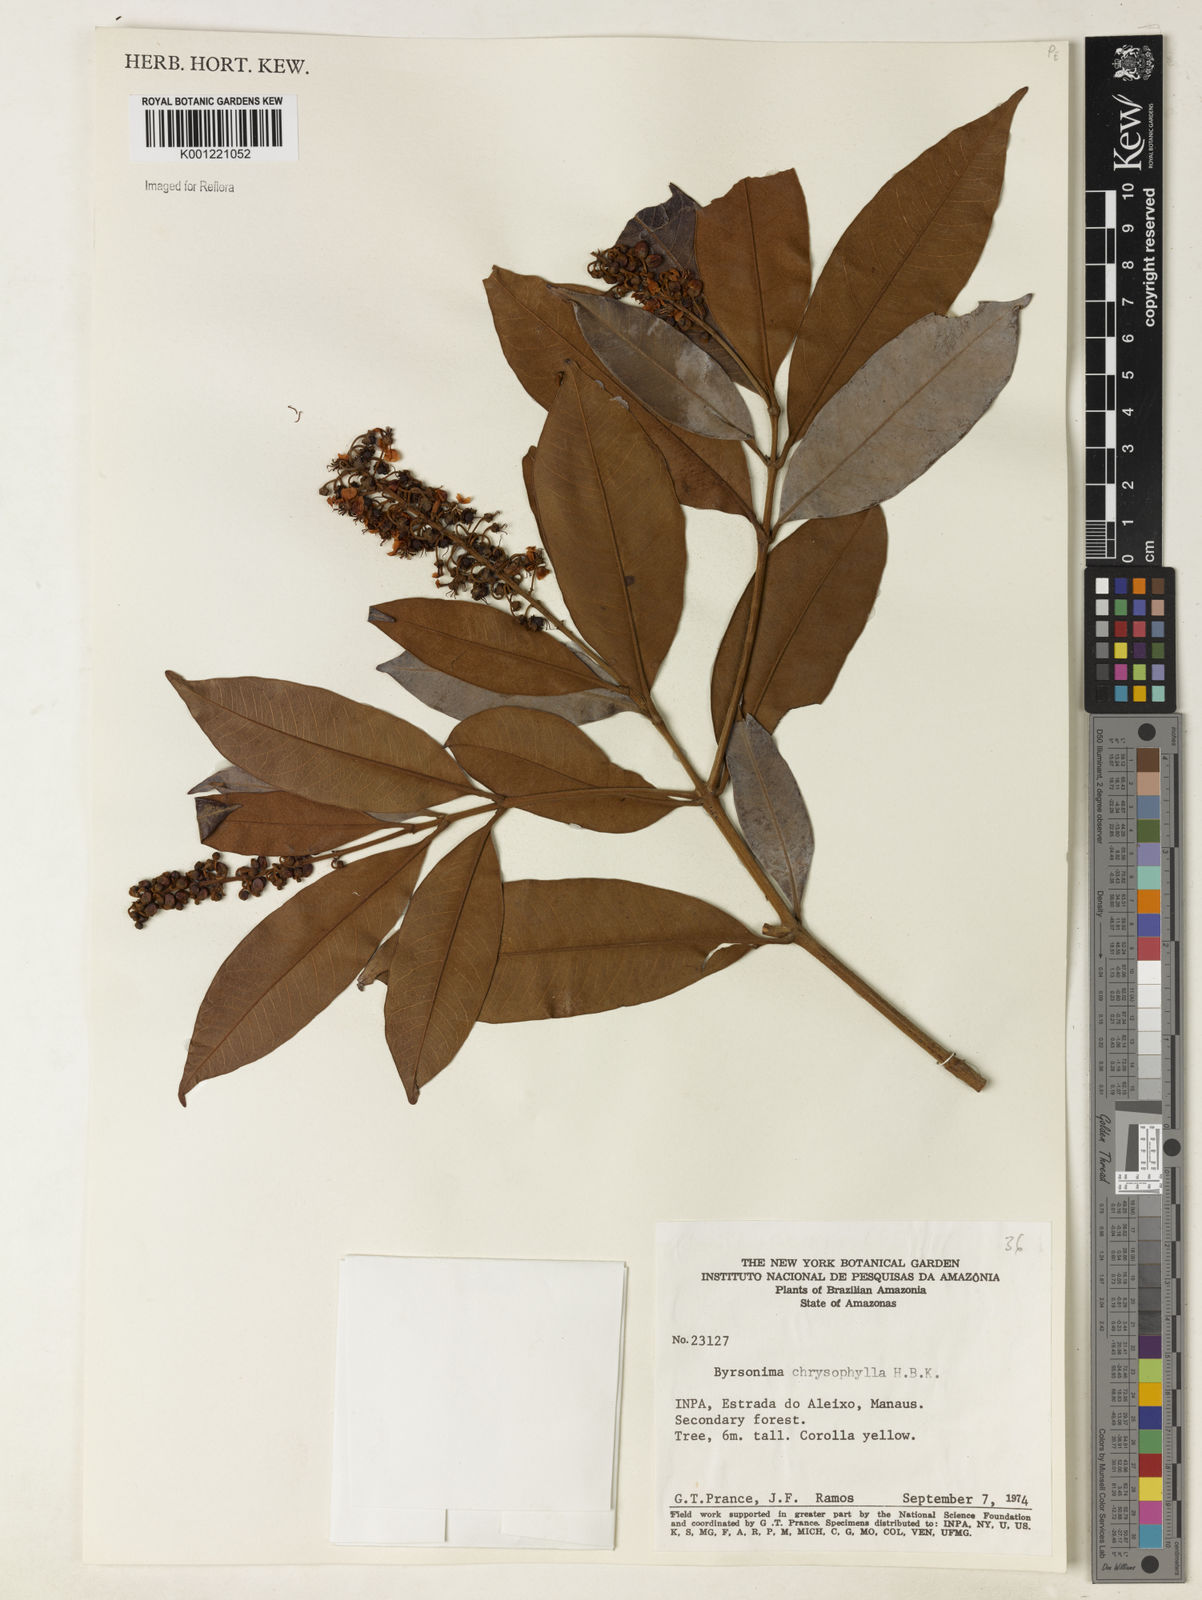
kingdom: Plantae
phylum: Tracheophyta
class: Magnoliopsida
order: Malpighiales
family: Malpighiaceae
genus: Byrsonima
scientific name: Byrsonima chrysophylla
